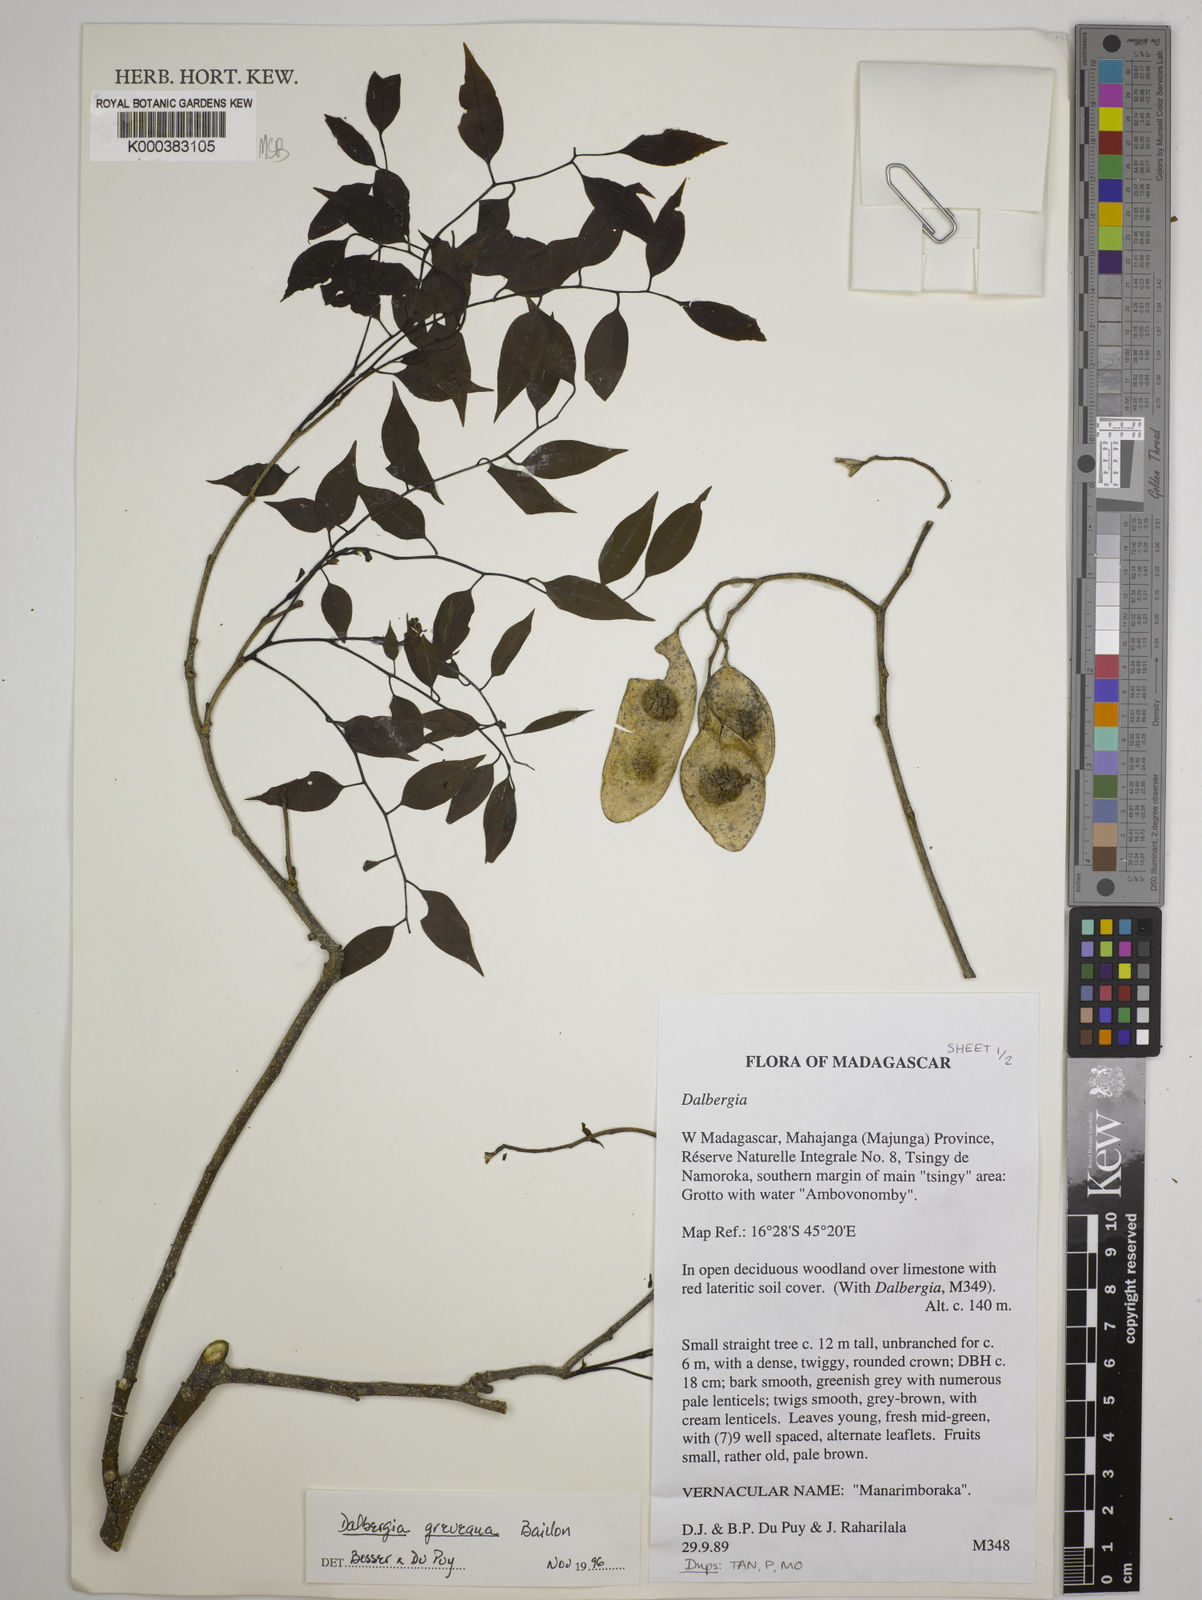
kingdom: Plantae
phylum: Tracheophyta
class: Magnoliopsida
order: Fabales
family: Fabaceae
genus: Dalbergia
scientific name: Dalbergia greveana
